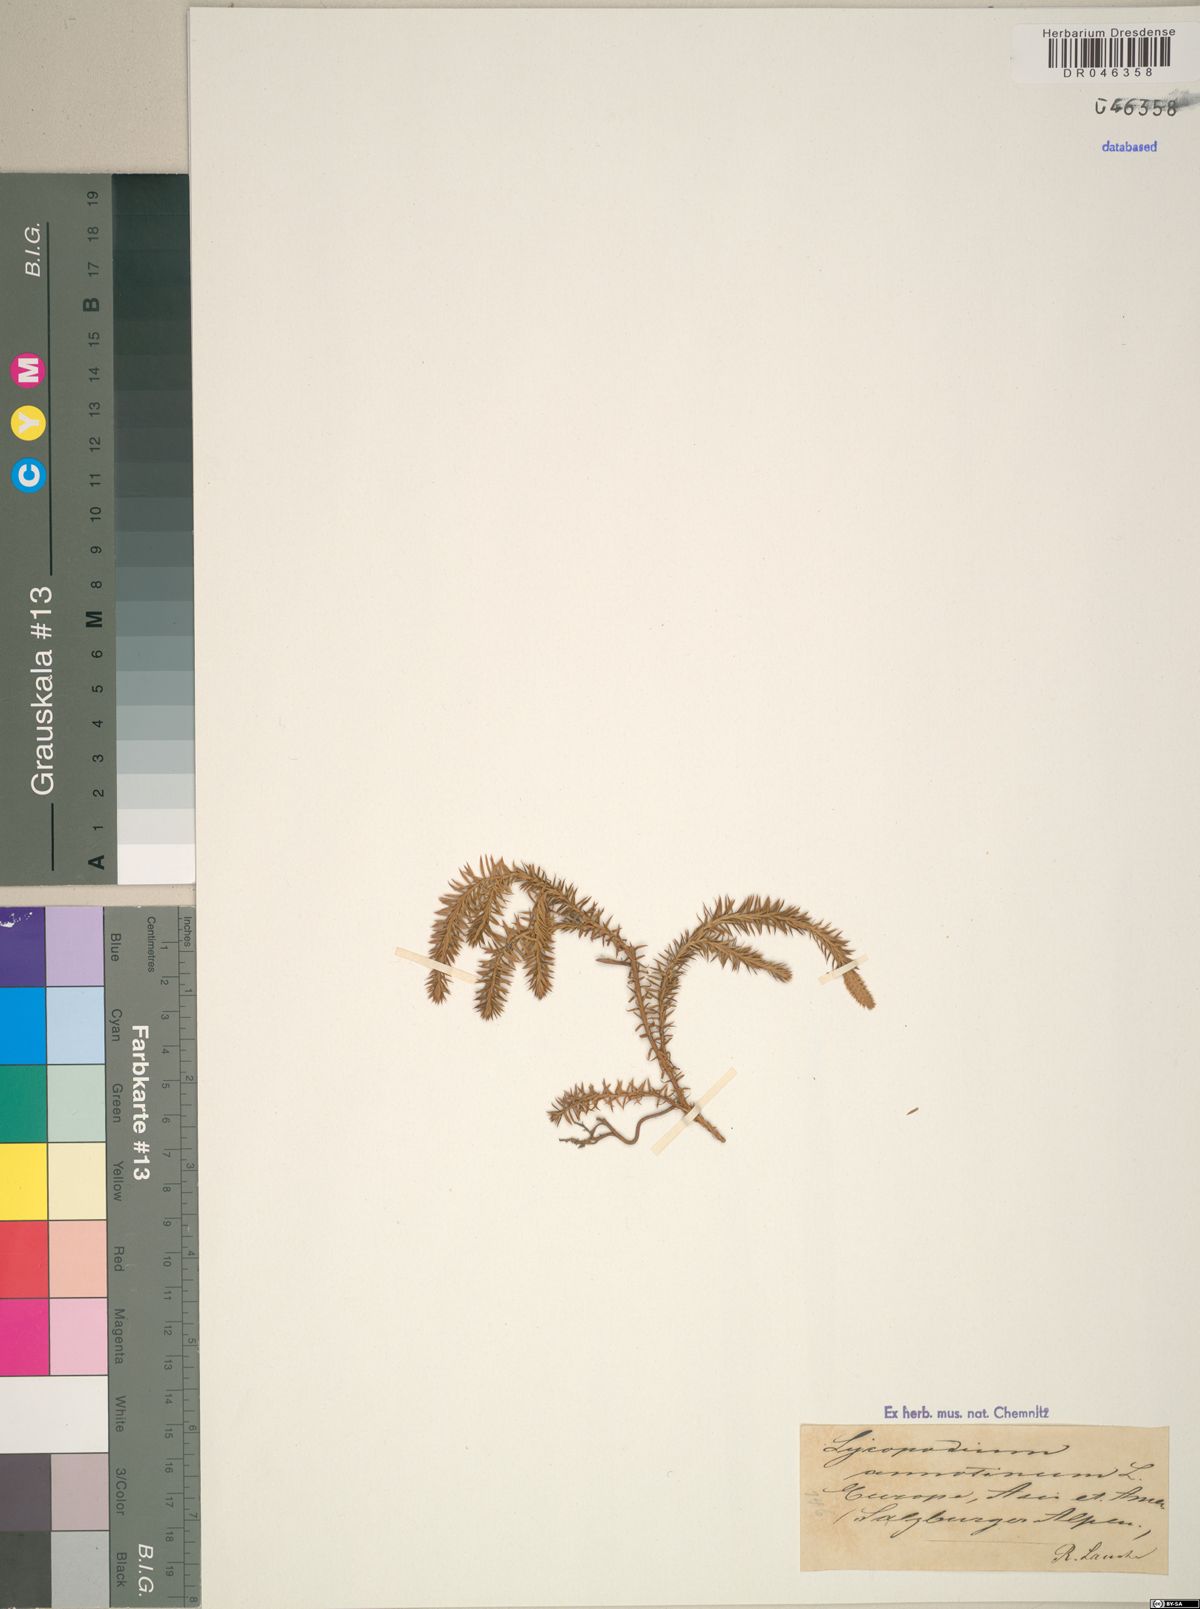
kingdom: Plantae
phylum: Tracheophyta
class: Lycopodiopsida
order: Lycopodiales
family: Lycopodiaceae
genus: Spinulum
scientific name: Spinulum annotinum
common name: Interrupted club-moss
